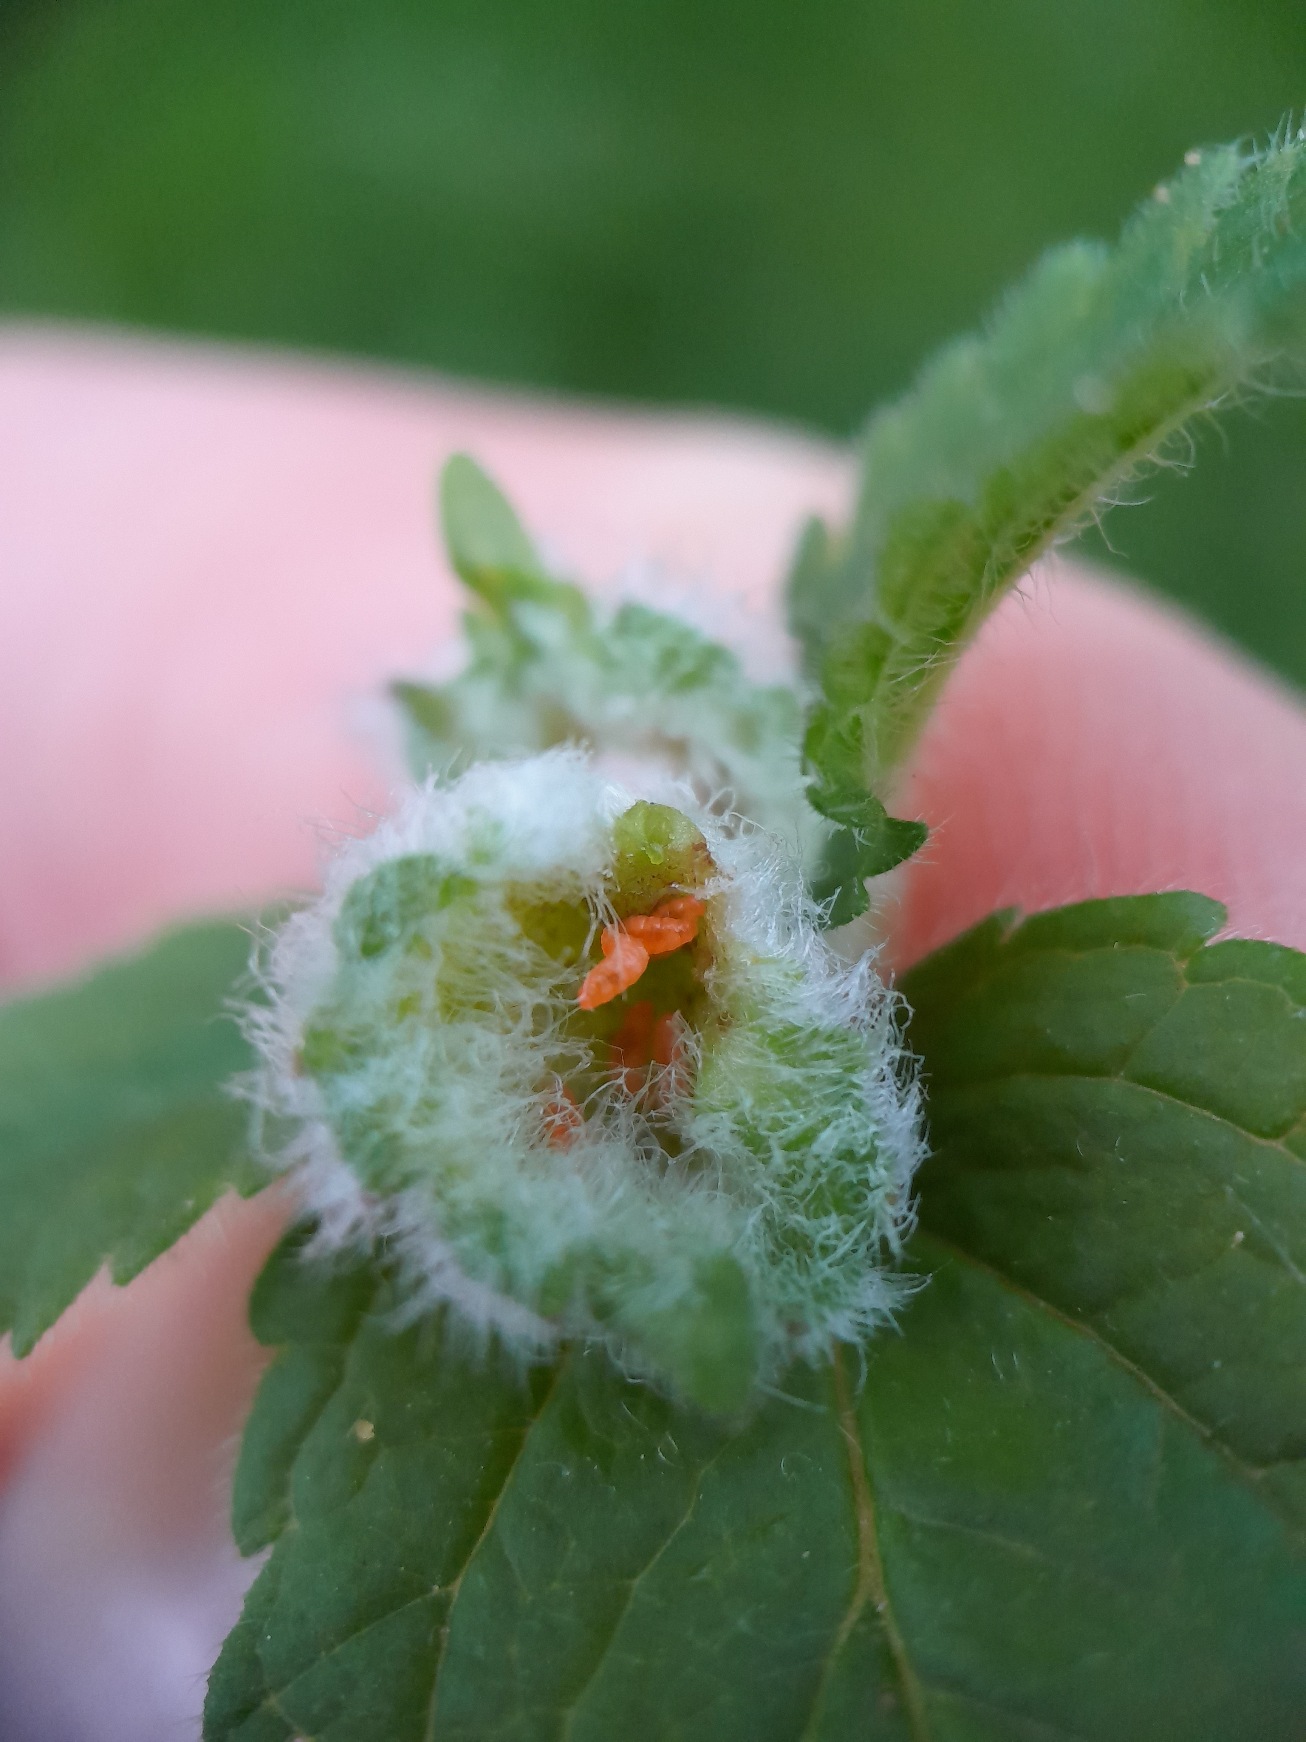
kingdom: Animalia
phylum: Arthropoda
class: Insecta
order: Diptera
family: Cecidomyiidae
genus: Jaapiella
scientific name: Jaapiella veronicae
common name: Ærenprisgalmyg
